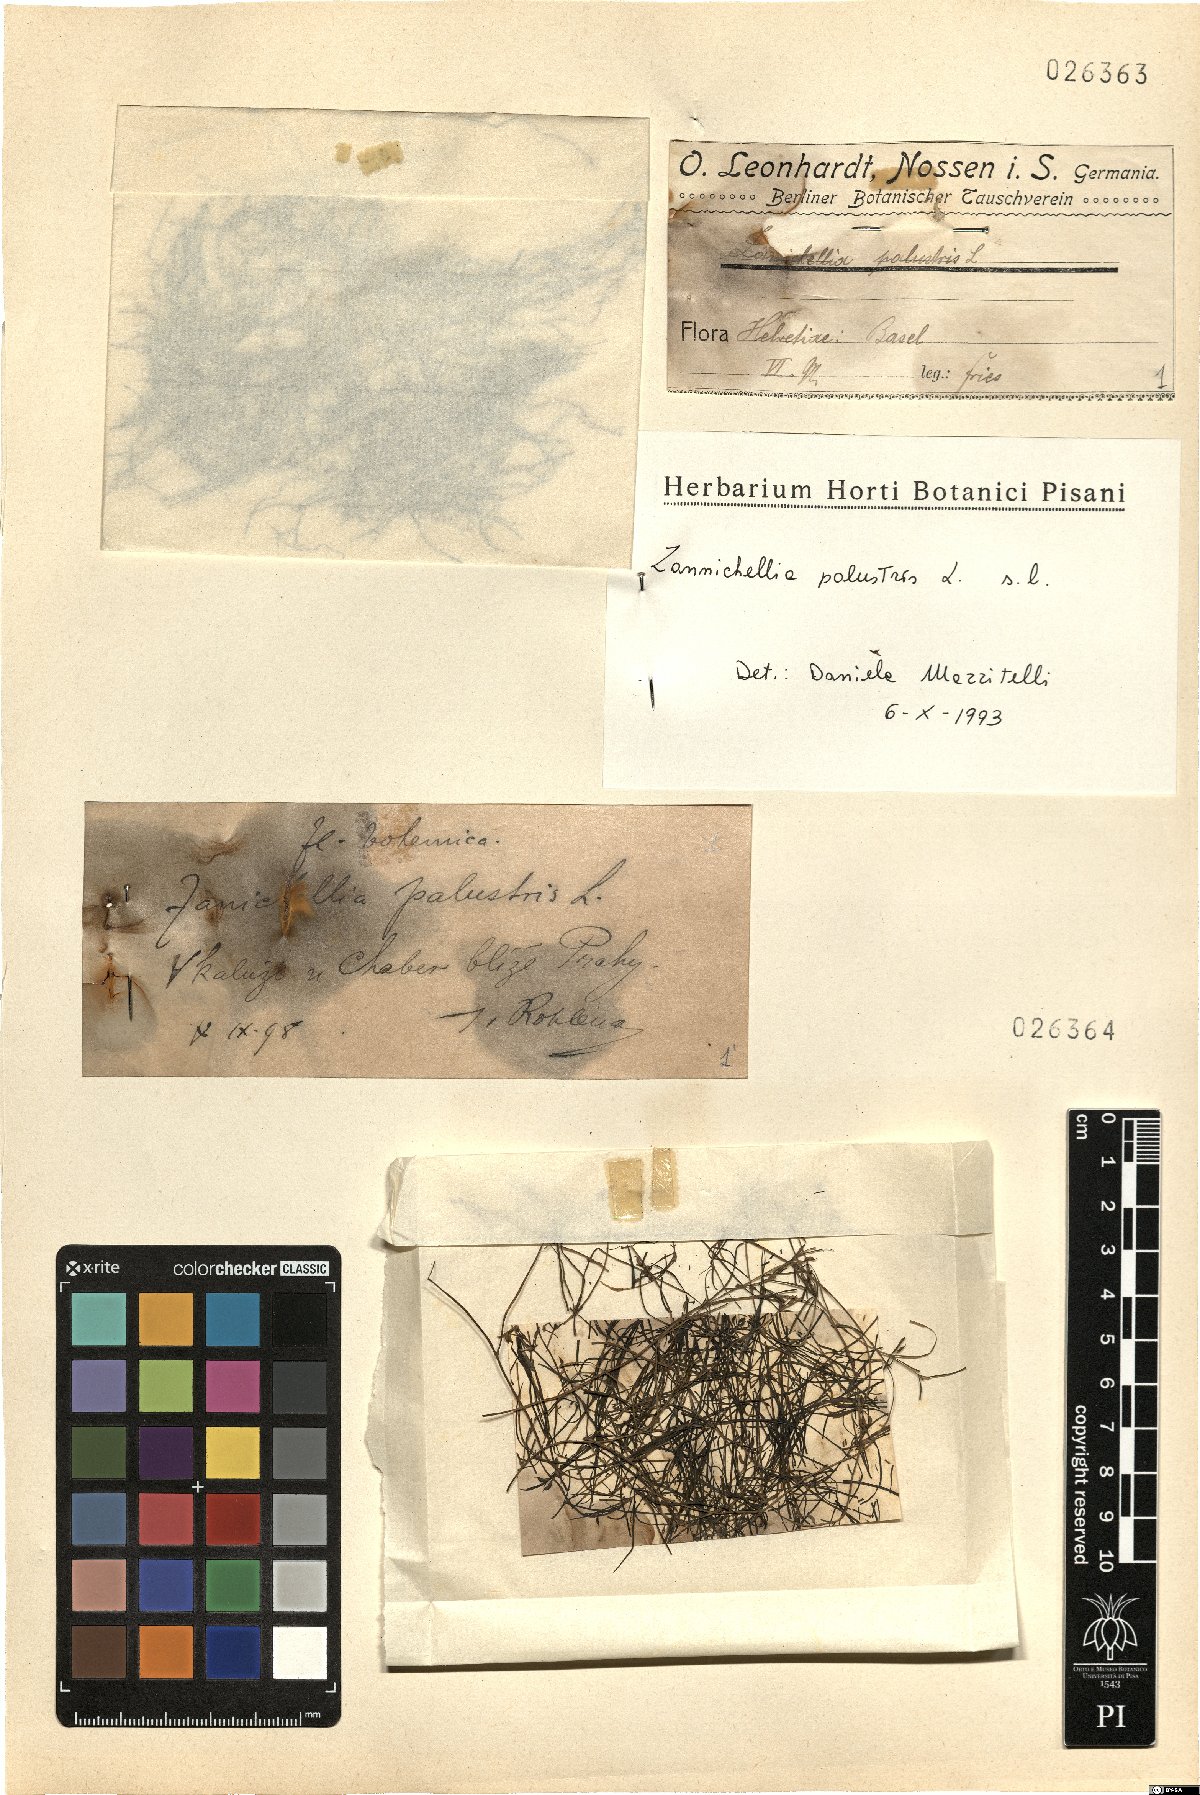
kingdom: Plantae
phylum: Tracheophyta
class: Liliopsida
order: Alismatales
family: Potamogetonaceae
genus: Zannichellia
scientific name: Zannichellia palustris
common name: Horned pondweed
